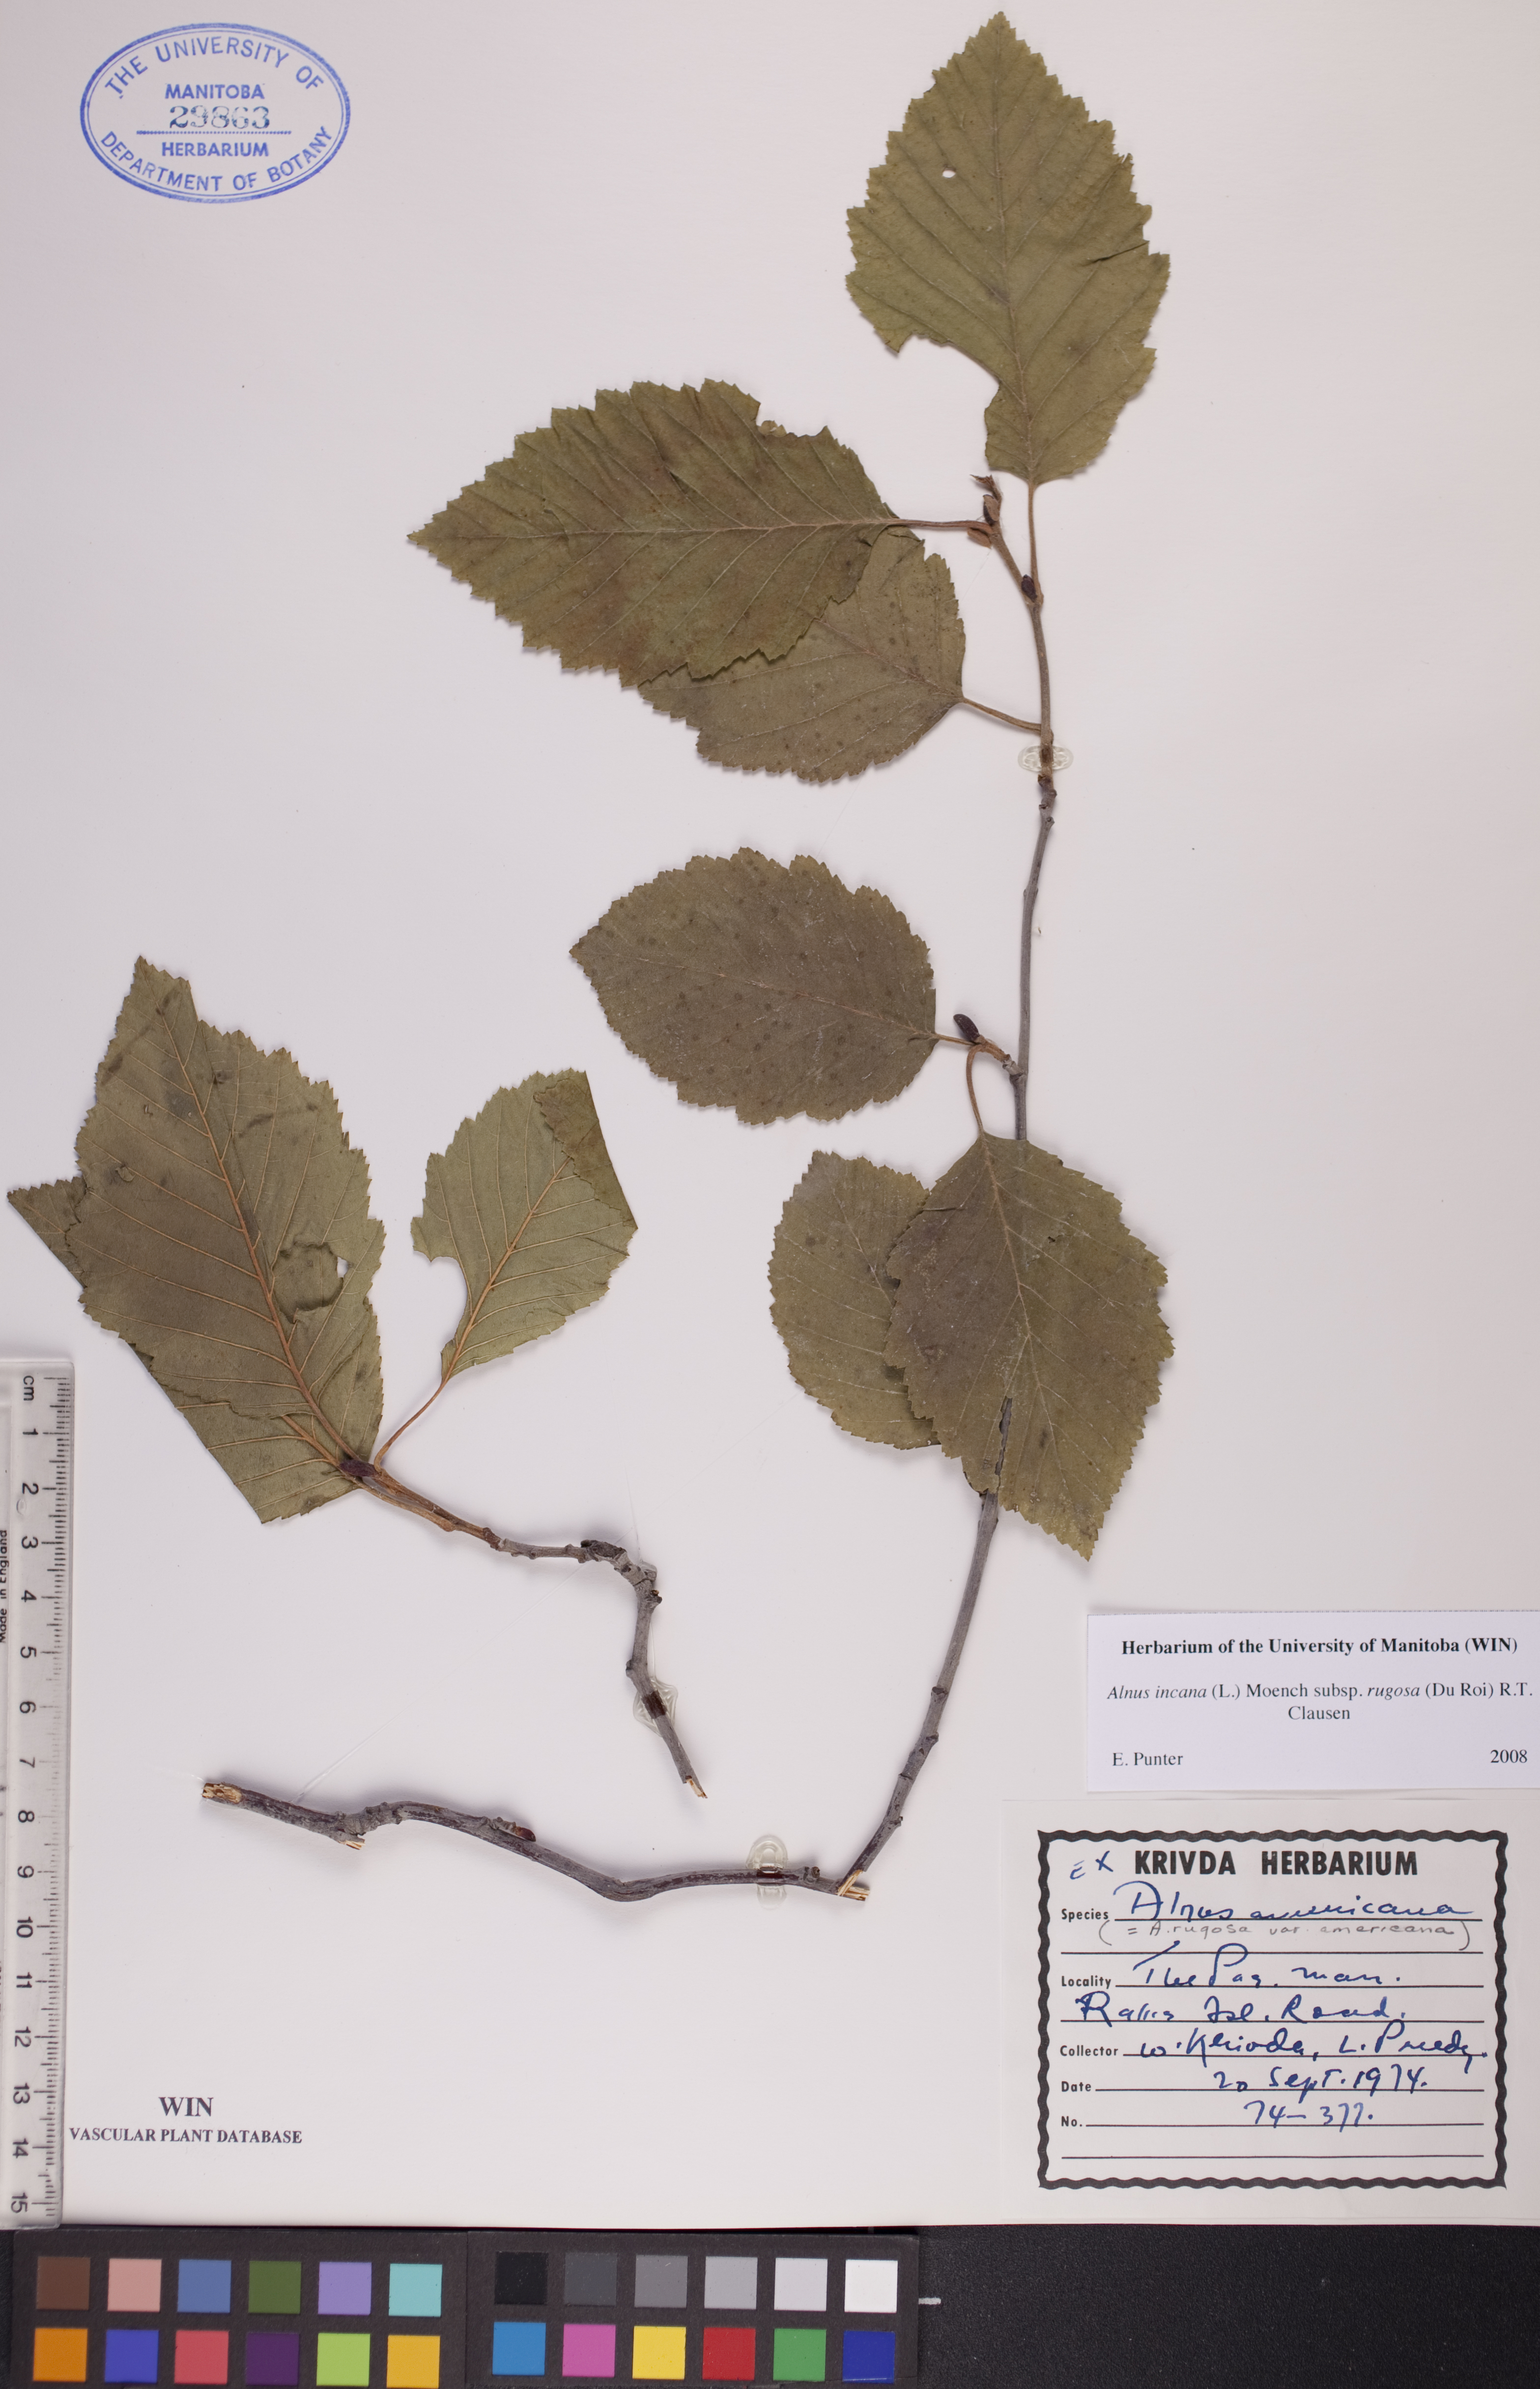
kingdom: Plantae
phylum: Tracheophyta
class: Magnoliopsida
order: Fagales
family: Betulaceae
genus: Alnus
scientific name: Alnus incana
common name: Grey alder
